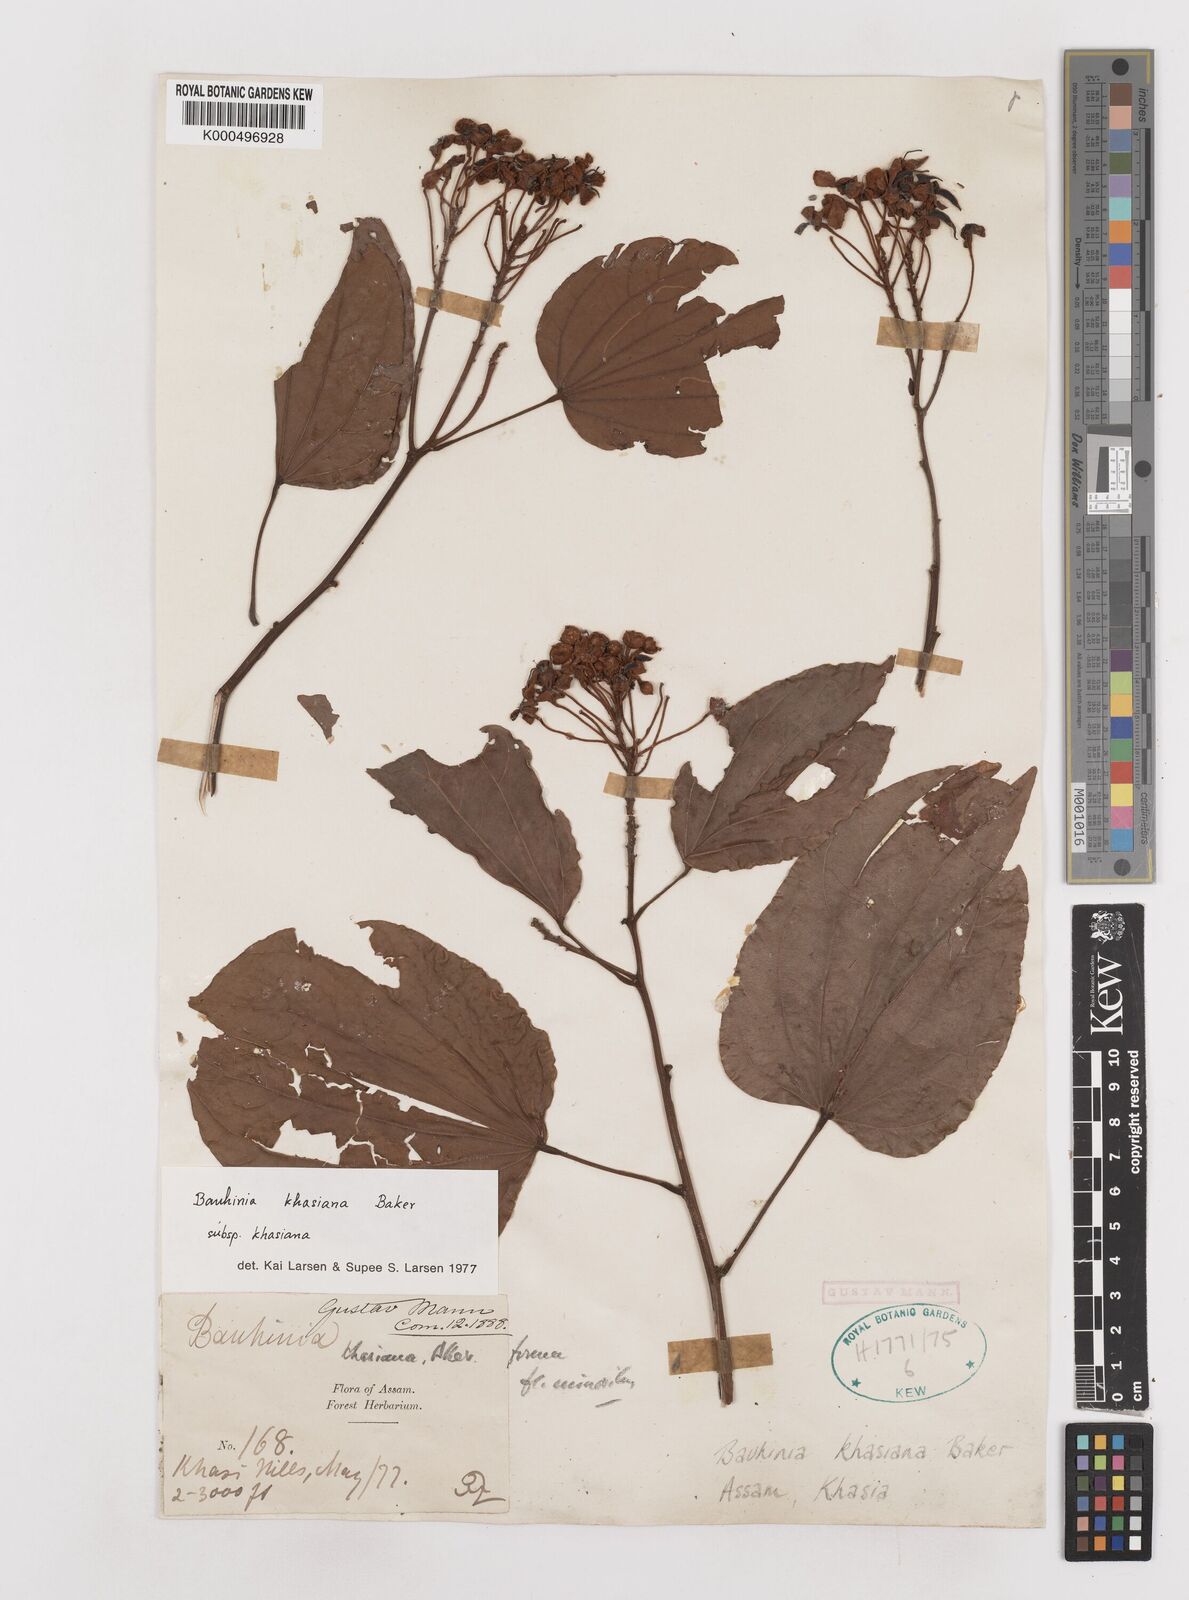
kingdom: Plantae
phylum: Tracheophyta
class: Magnoliopsida
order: Fabales
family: Fabaceae
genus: Phanera
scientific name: Phanera khasiana
